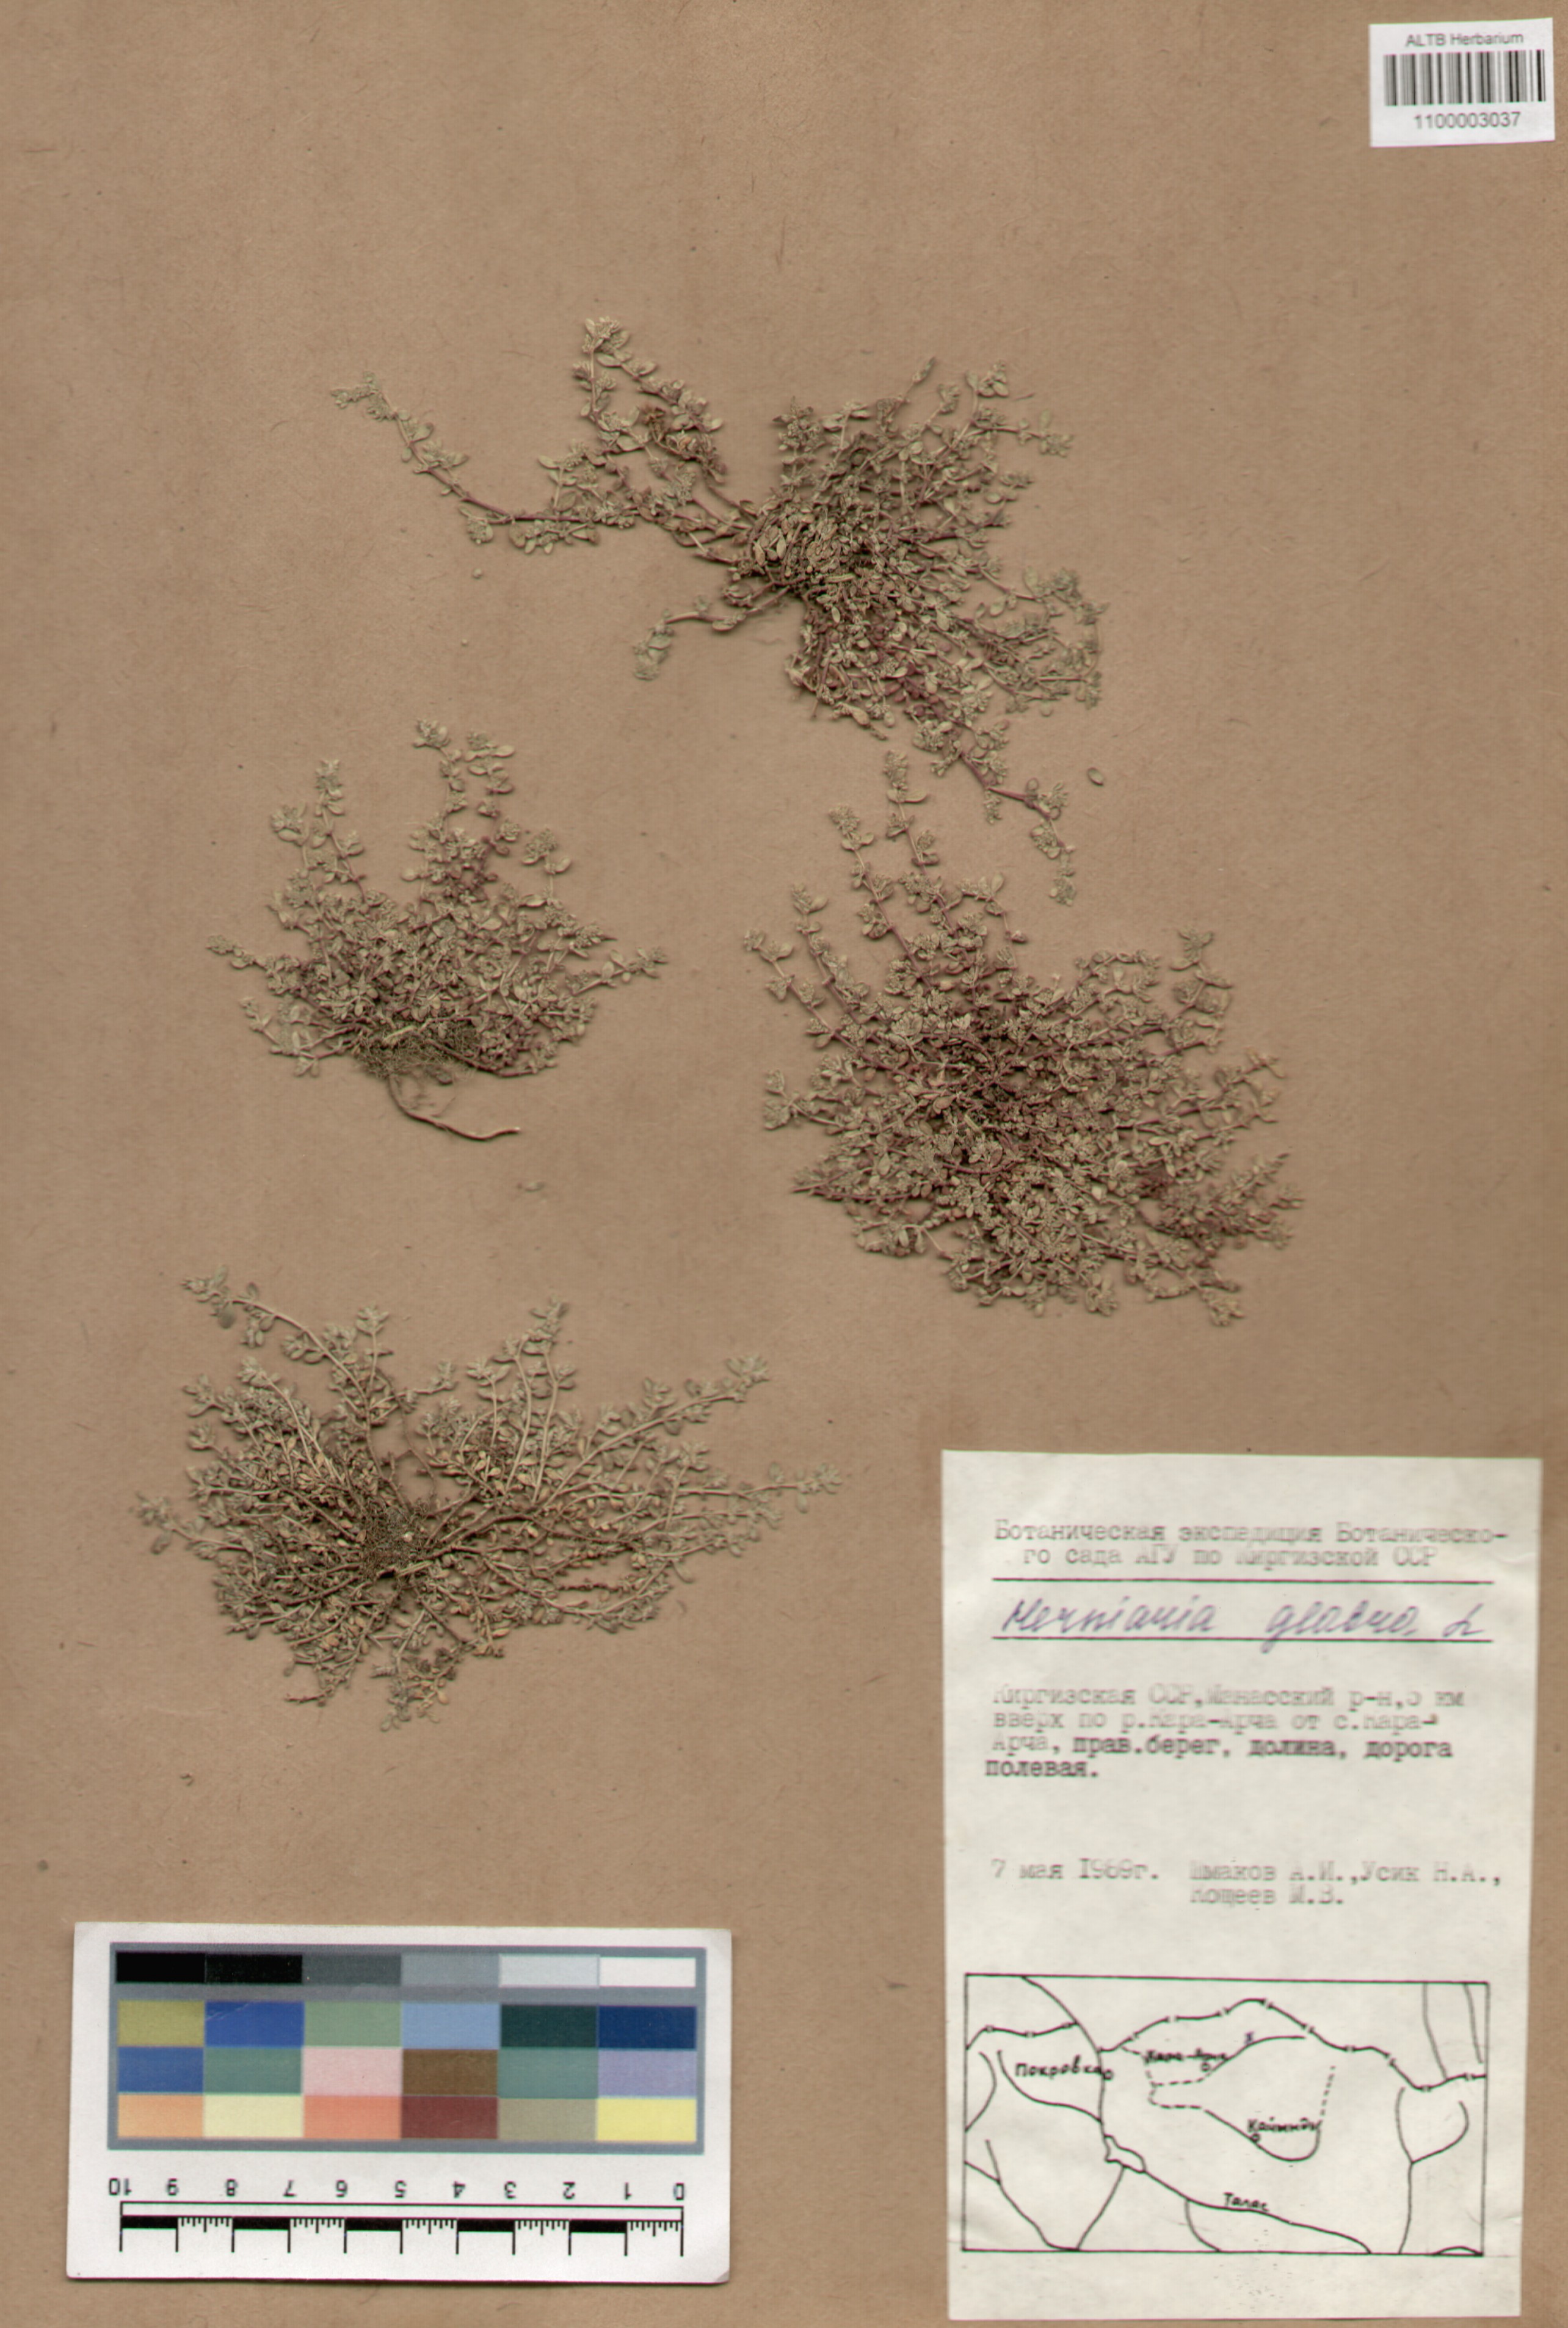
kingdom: Plantae
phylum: Tracheophyta
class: Magnoliopsida
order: Caryophyllales
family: Caryophyllaceae
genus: Herniaria
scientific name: Herniaria glabra
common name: Smooth rupturewort
